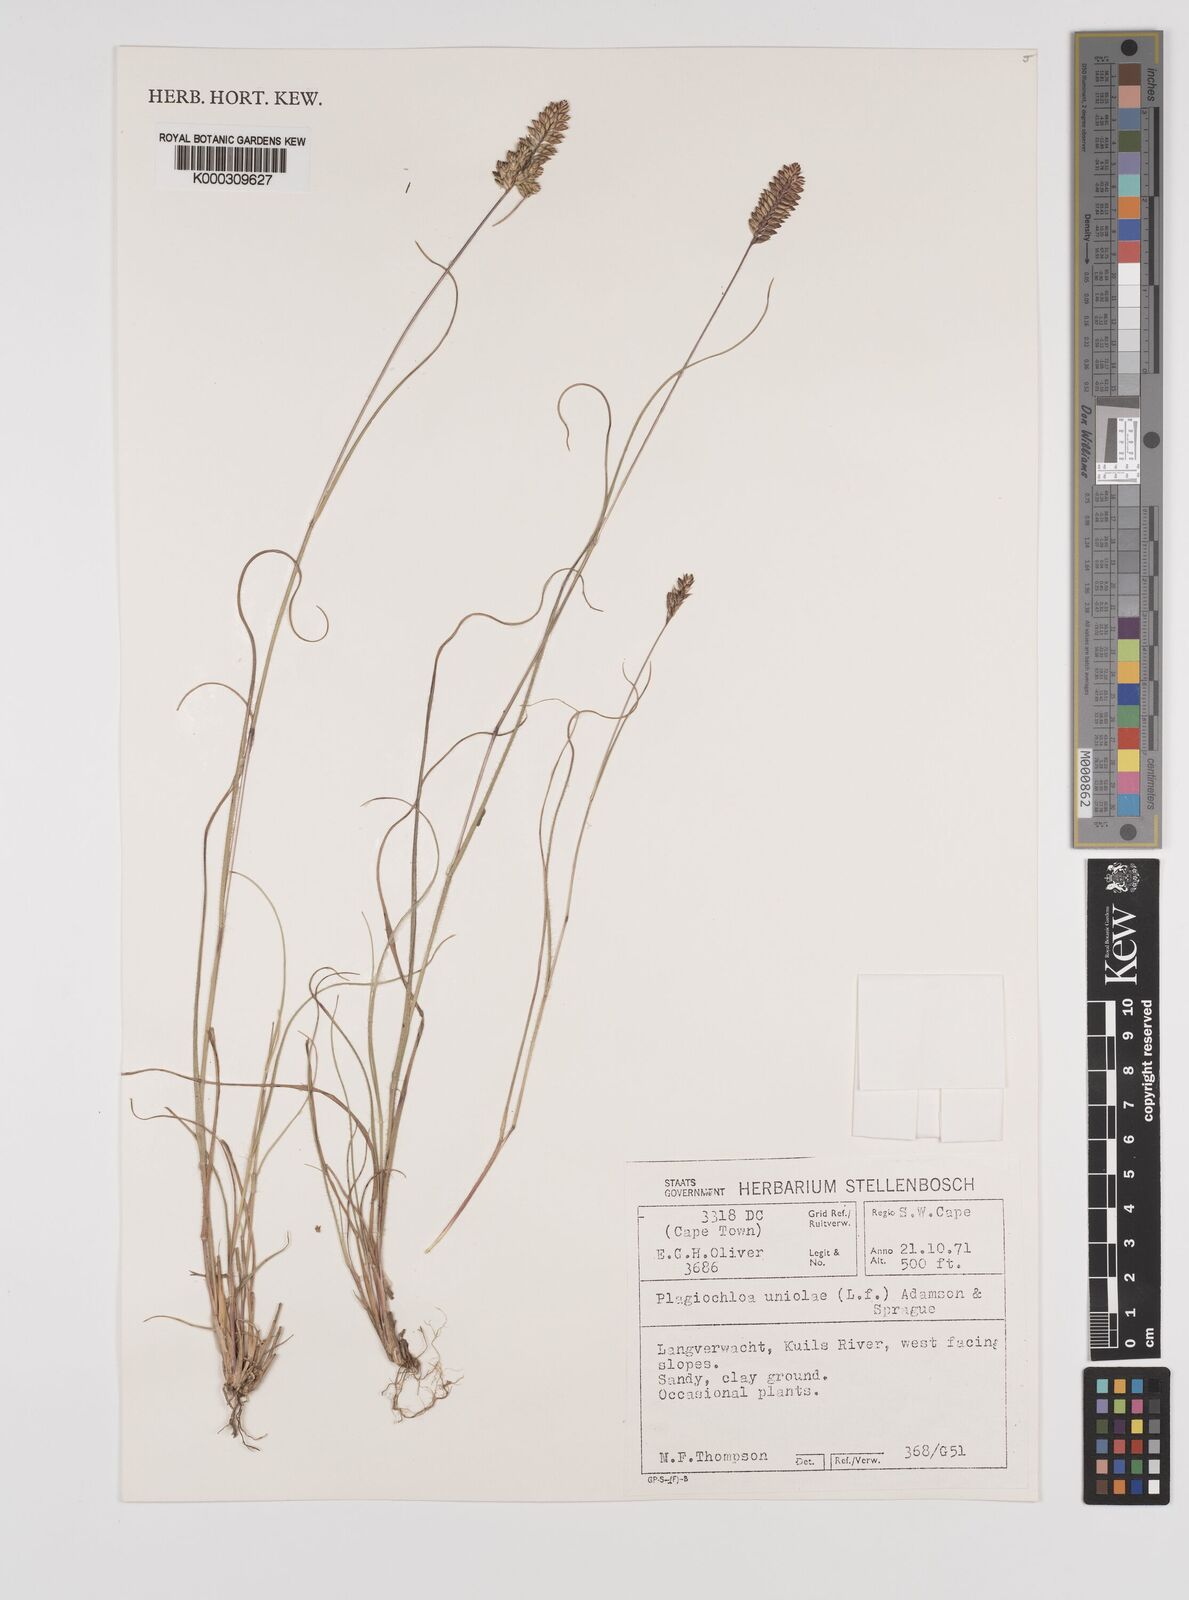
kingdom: Plantae
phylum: Tracheophyta
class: Liliopsida
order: Poales
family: Poaceae
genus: Tribolium
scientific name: Tribolium uniolae
